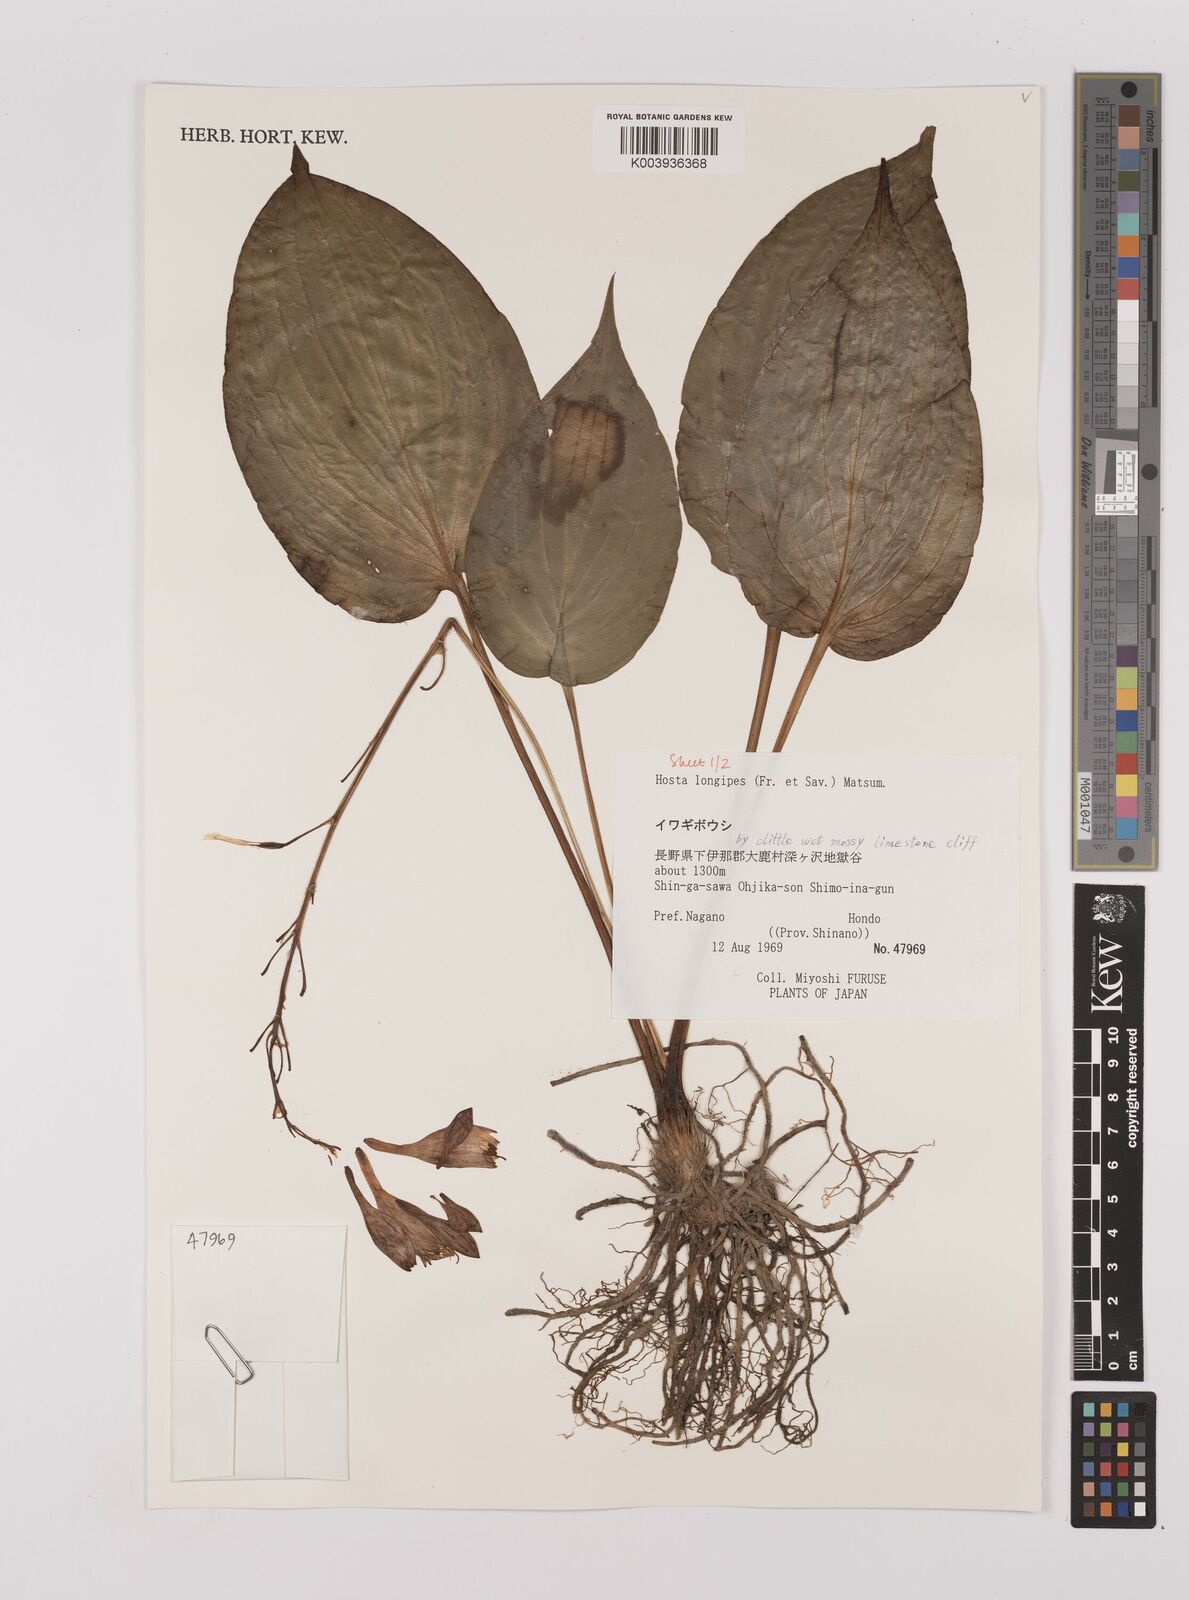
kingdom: Plantae
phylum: Tracheophyta
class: Liliopsida
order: Asparagales
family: Asparagaceae
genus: Hosta
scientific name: Hosta
